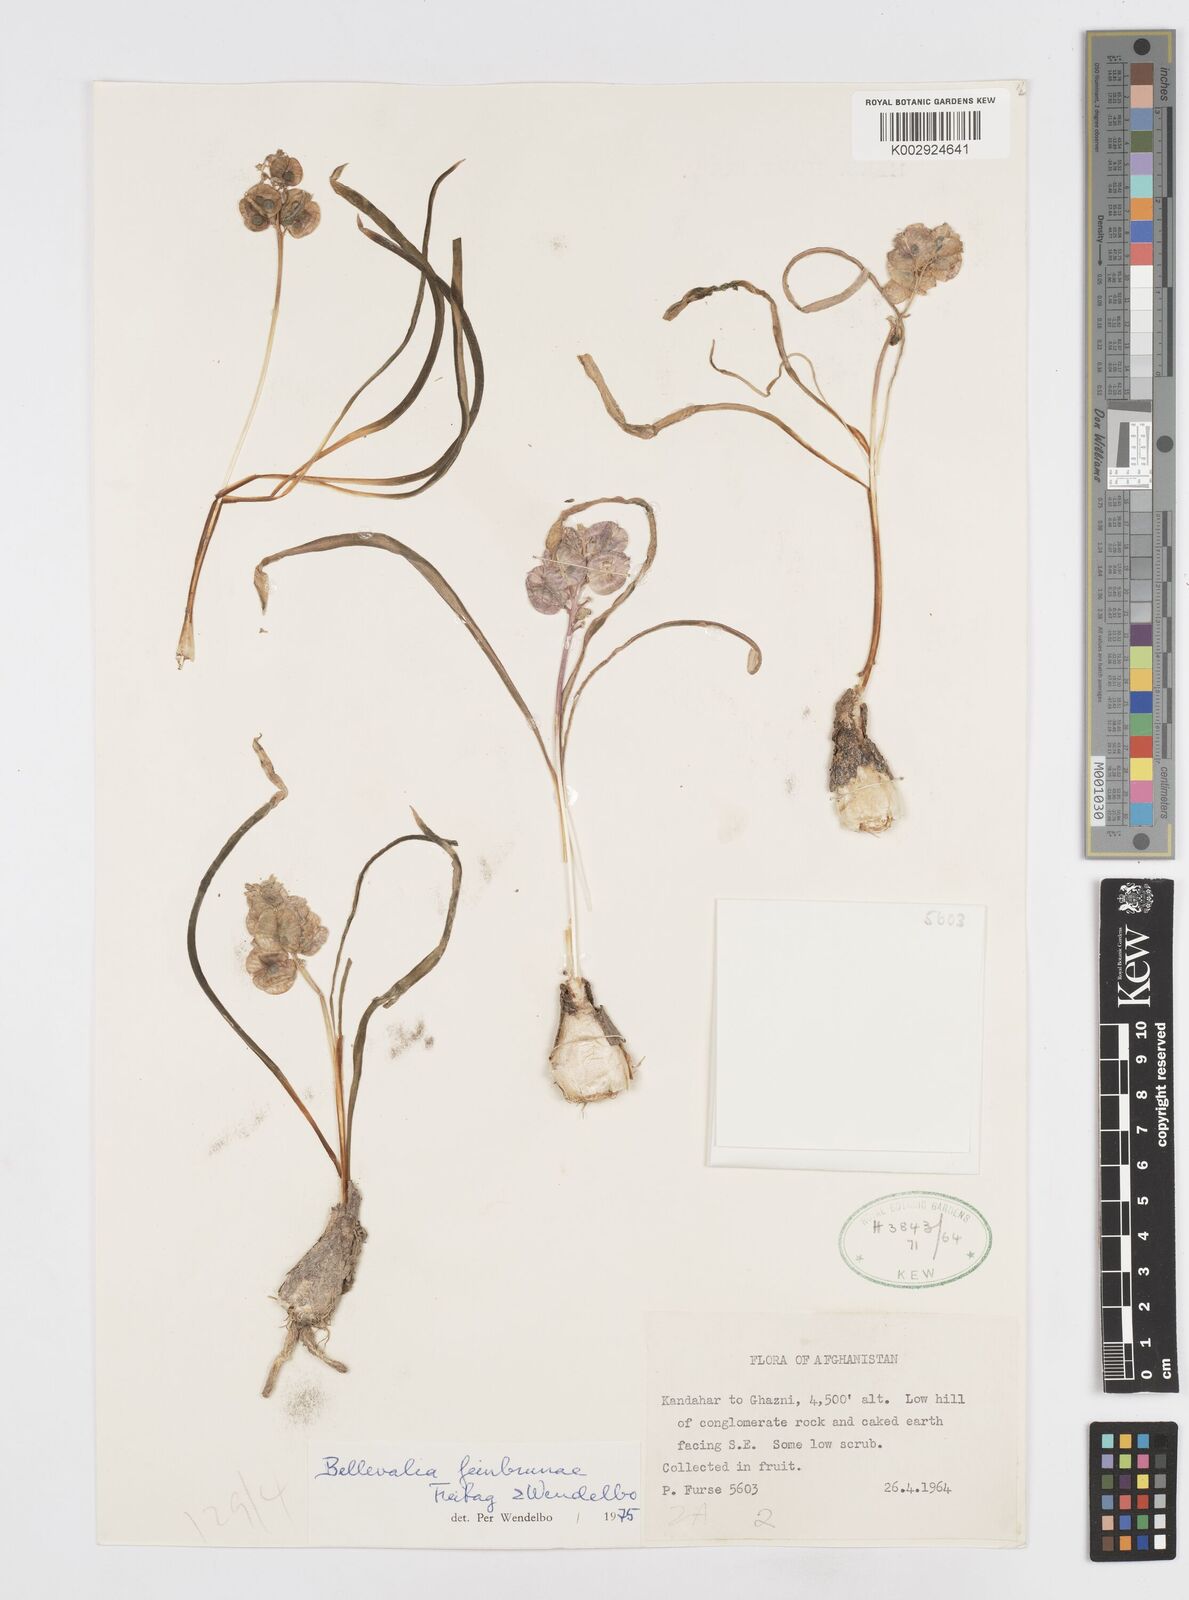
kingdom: Plantae
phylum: Tracheophyta
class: Liliopsida
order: Asparagales
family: Asparagaceae
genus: Bellevalia
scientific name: Bellevalia feinbruniae
